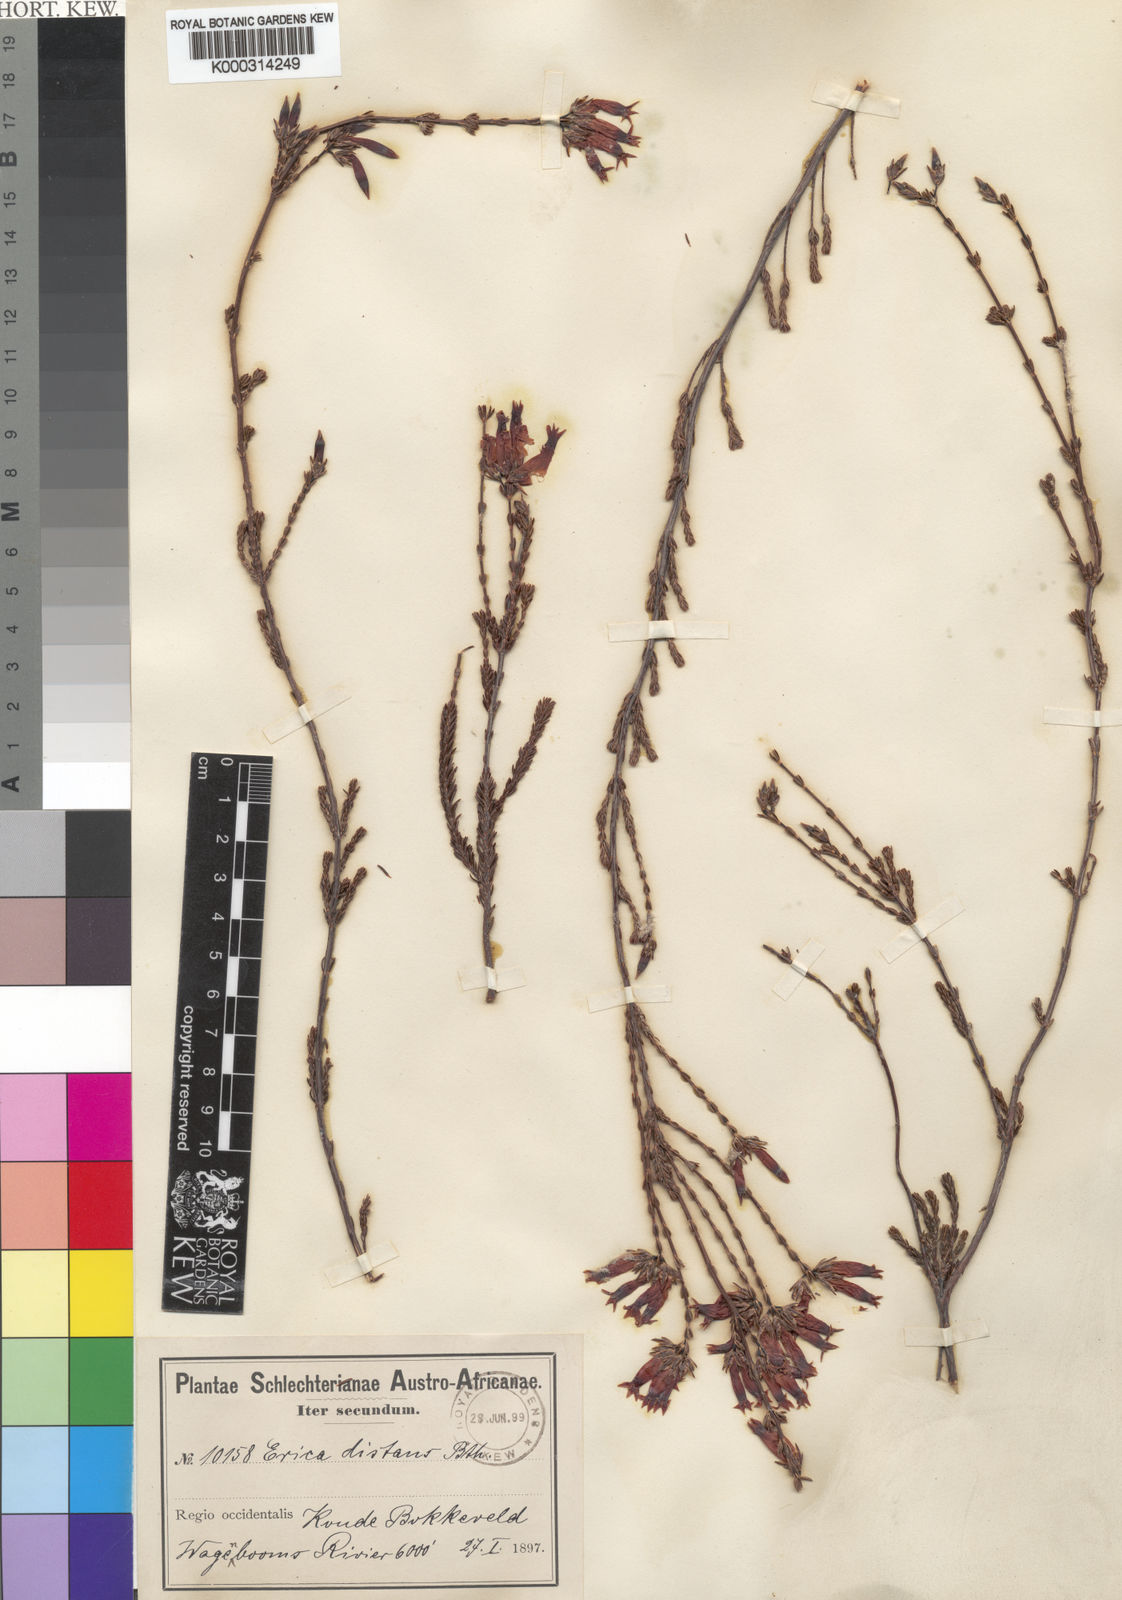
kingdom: Plantae
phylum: Tracheophyta
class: Magnoliopsida
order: Ericales
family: Ericaceae
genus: Erica
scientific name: Erica daphniflora
